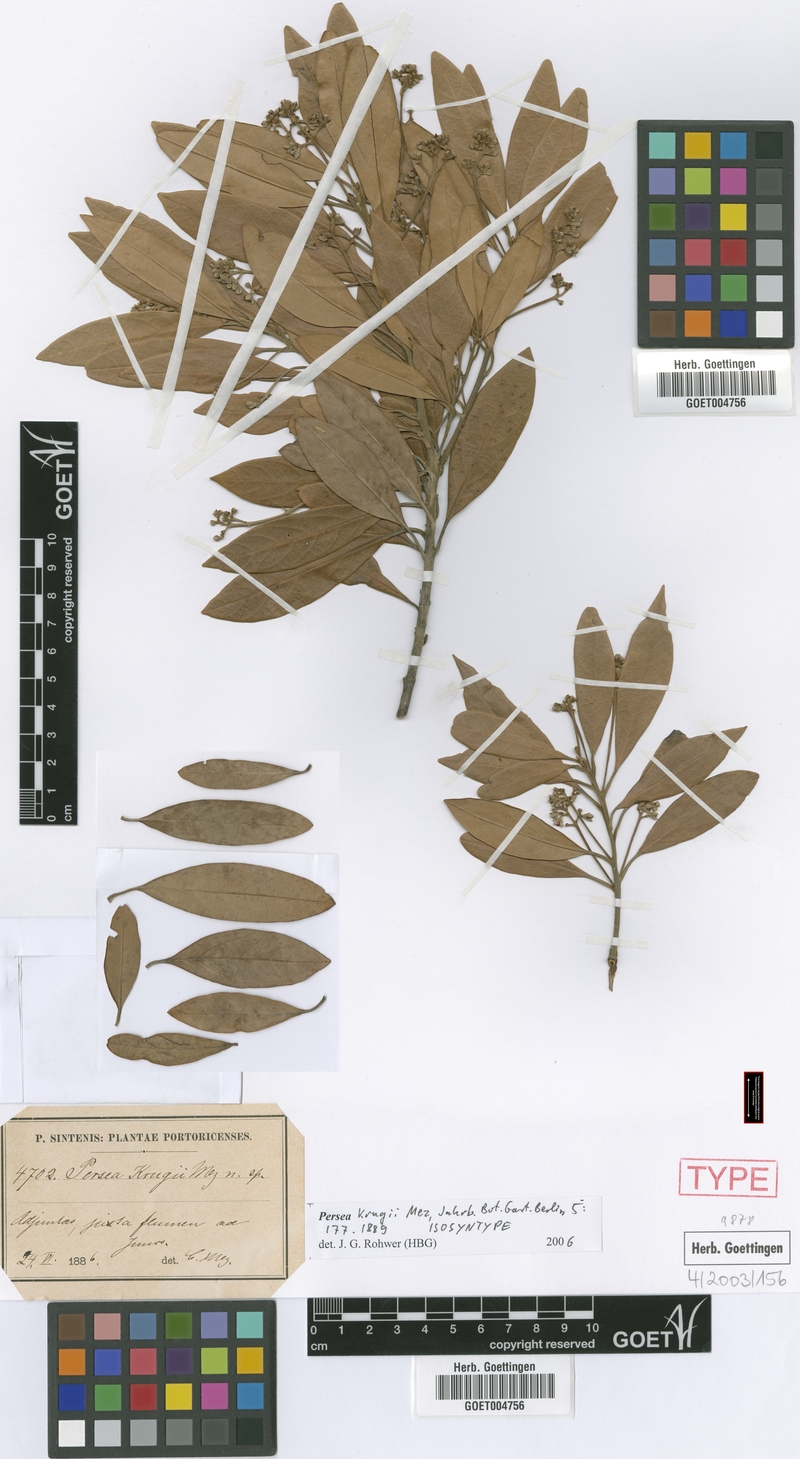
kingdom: Plantae
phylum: Tracheophyta
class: Magnoliopsida
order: Laurales
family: Lauraceae
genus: Persea
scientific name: Persea krugii
